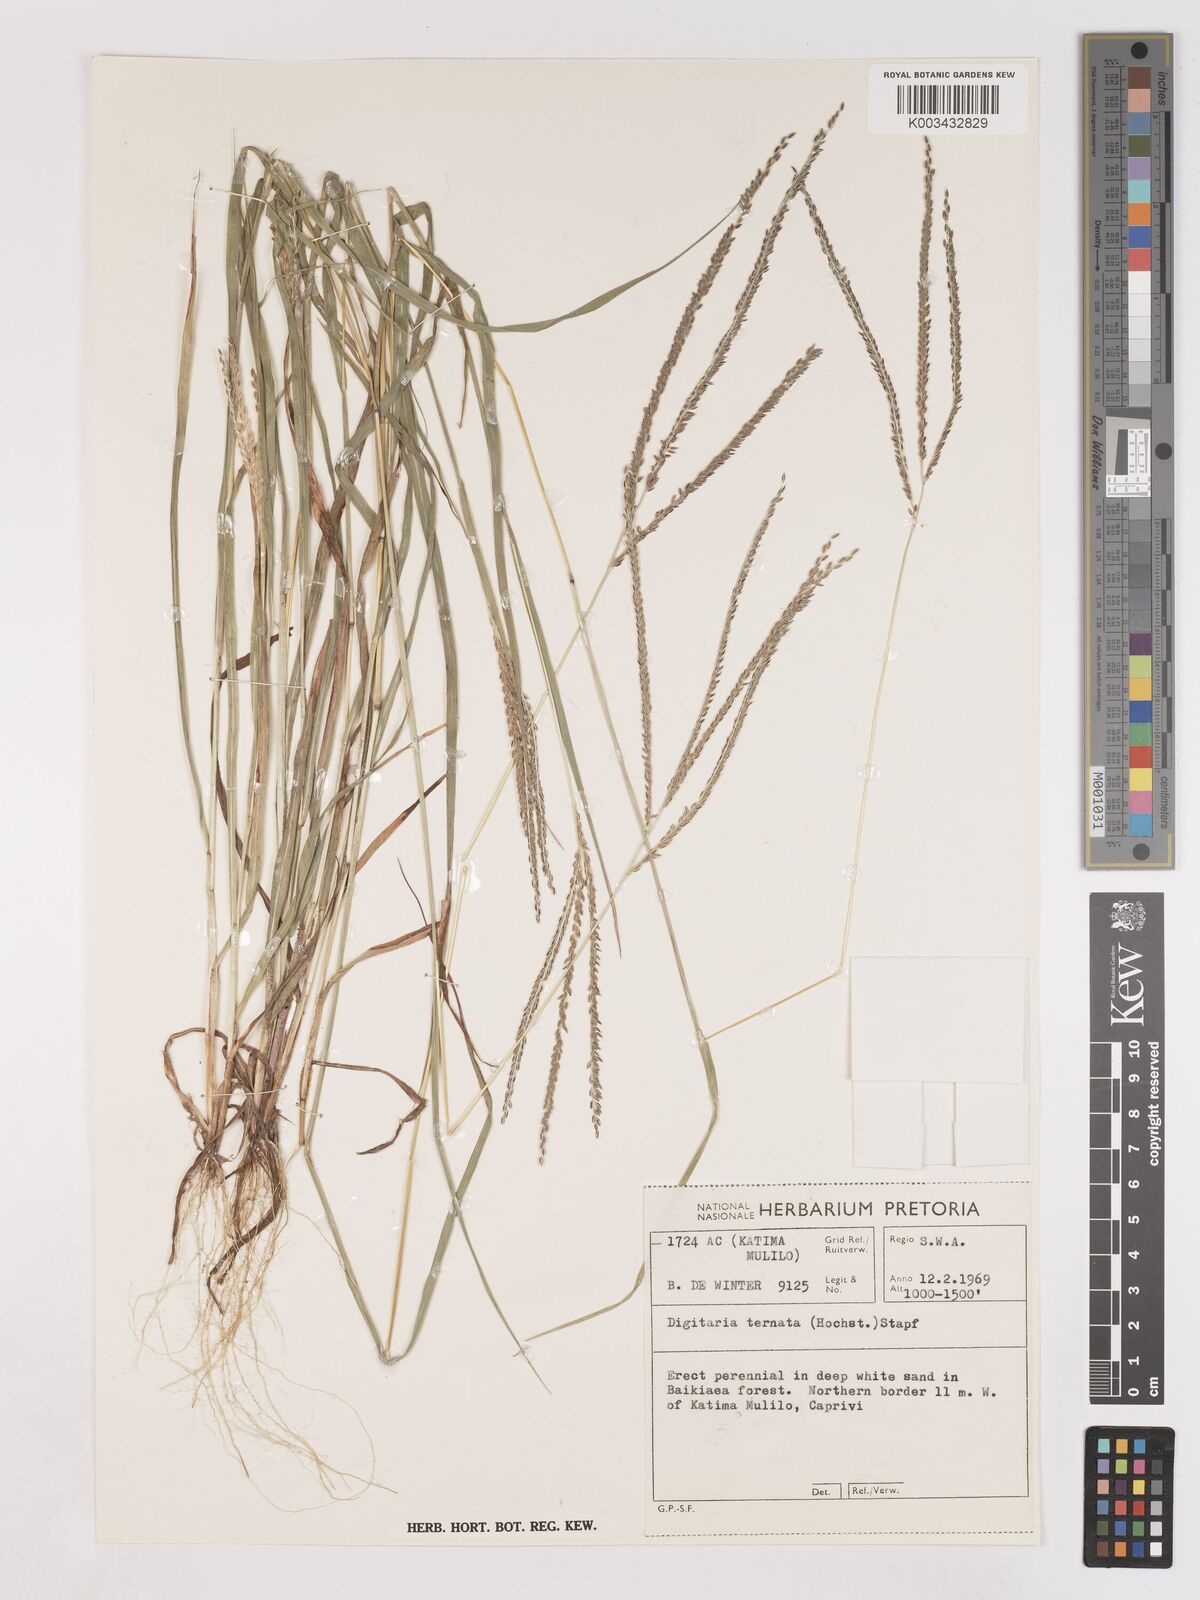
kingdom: Plantae
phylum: Tracheophyta
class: Liliopsida
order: Poales
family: Poaceae
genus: Digitaria
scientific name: Digitaria comifera
